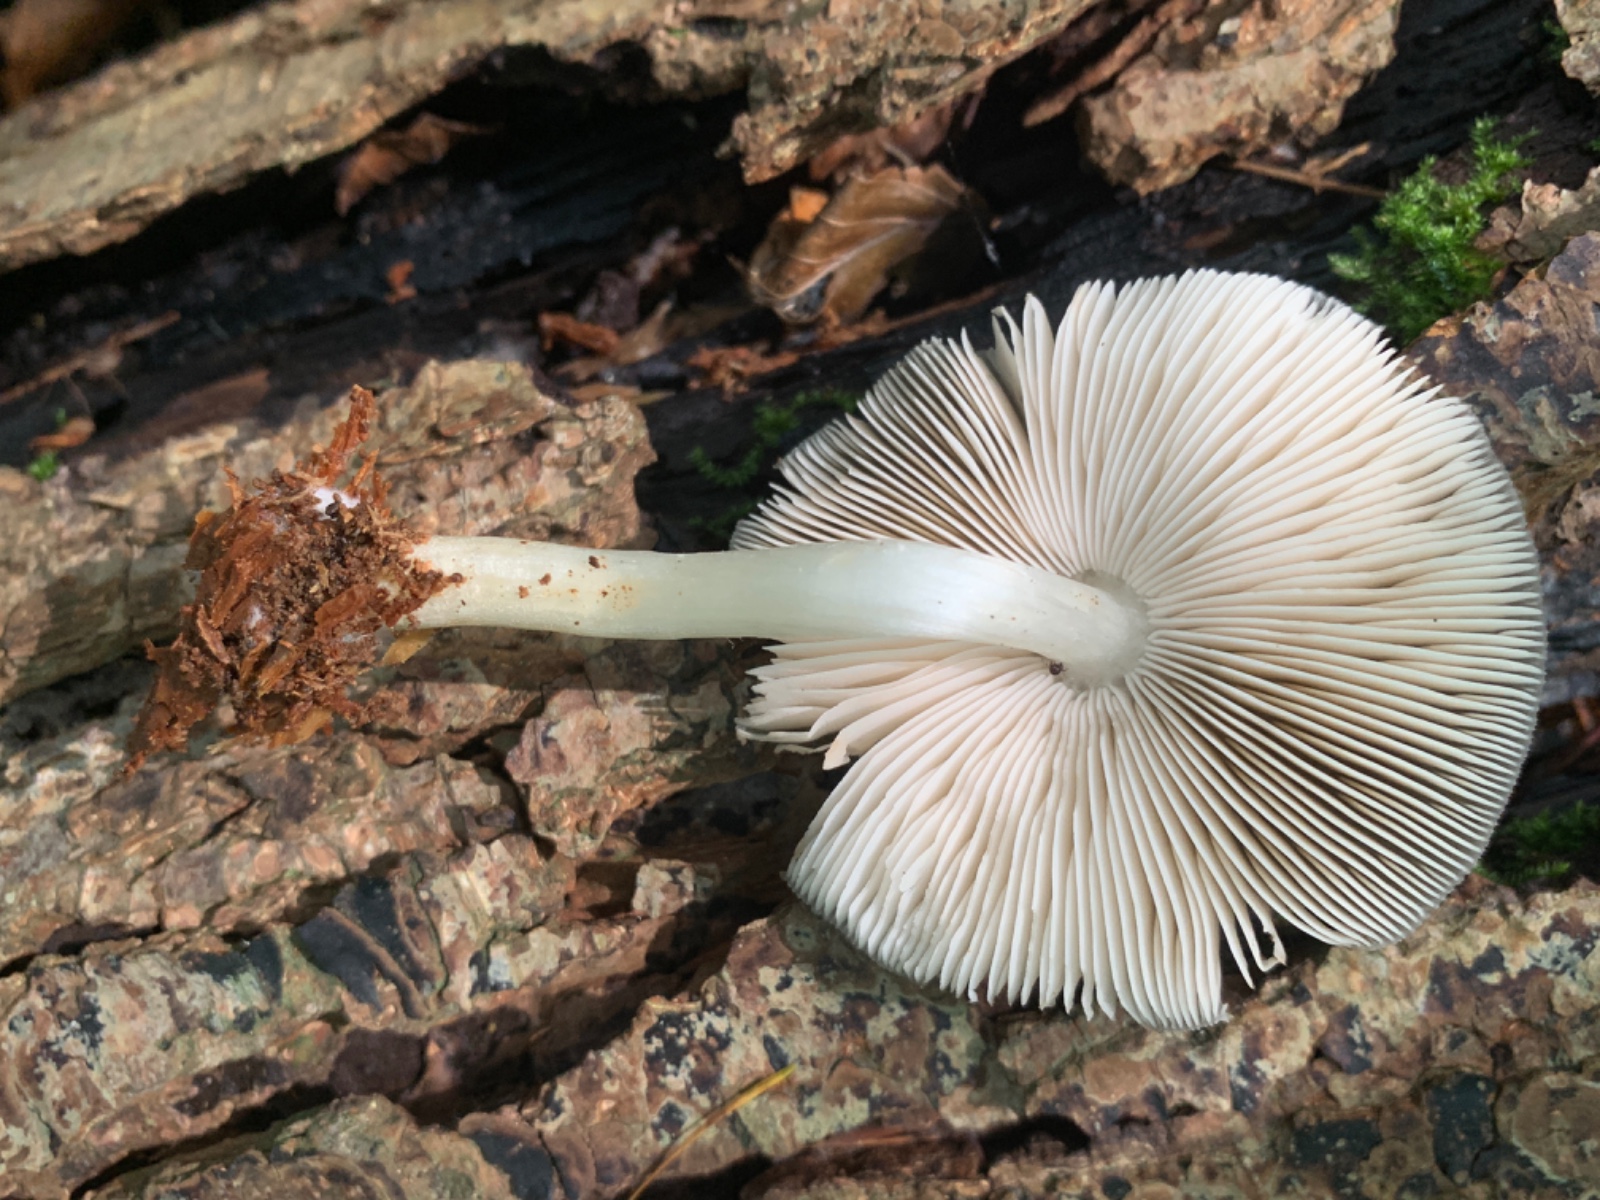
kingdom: Fungi
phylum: Basidiomycota
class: Agaricomycetes
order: Agaricales
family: Pluteaceae
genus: Pluteus
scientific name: Pluteus salicinus
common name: stiv skærmhat
